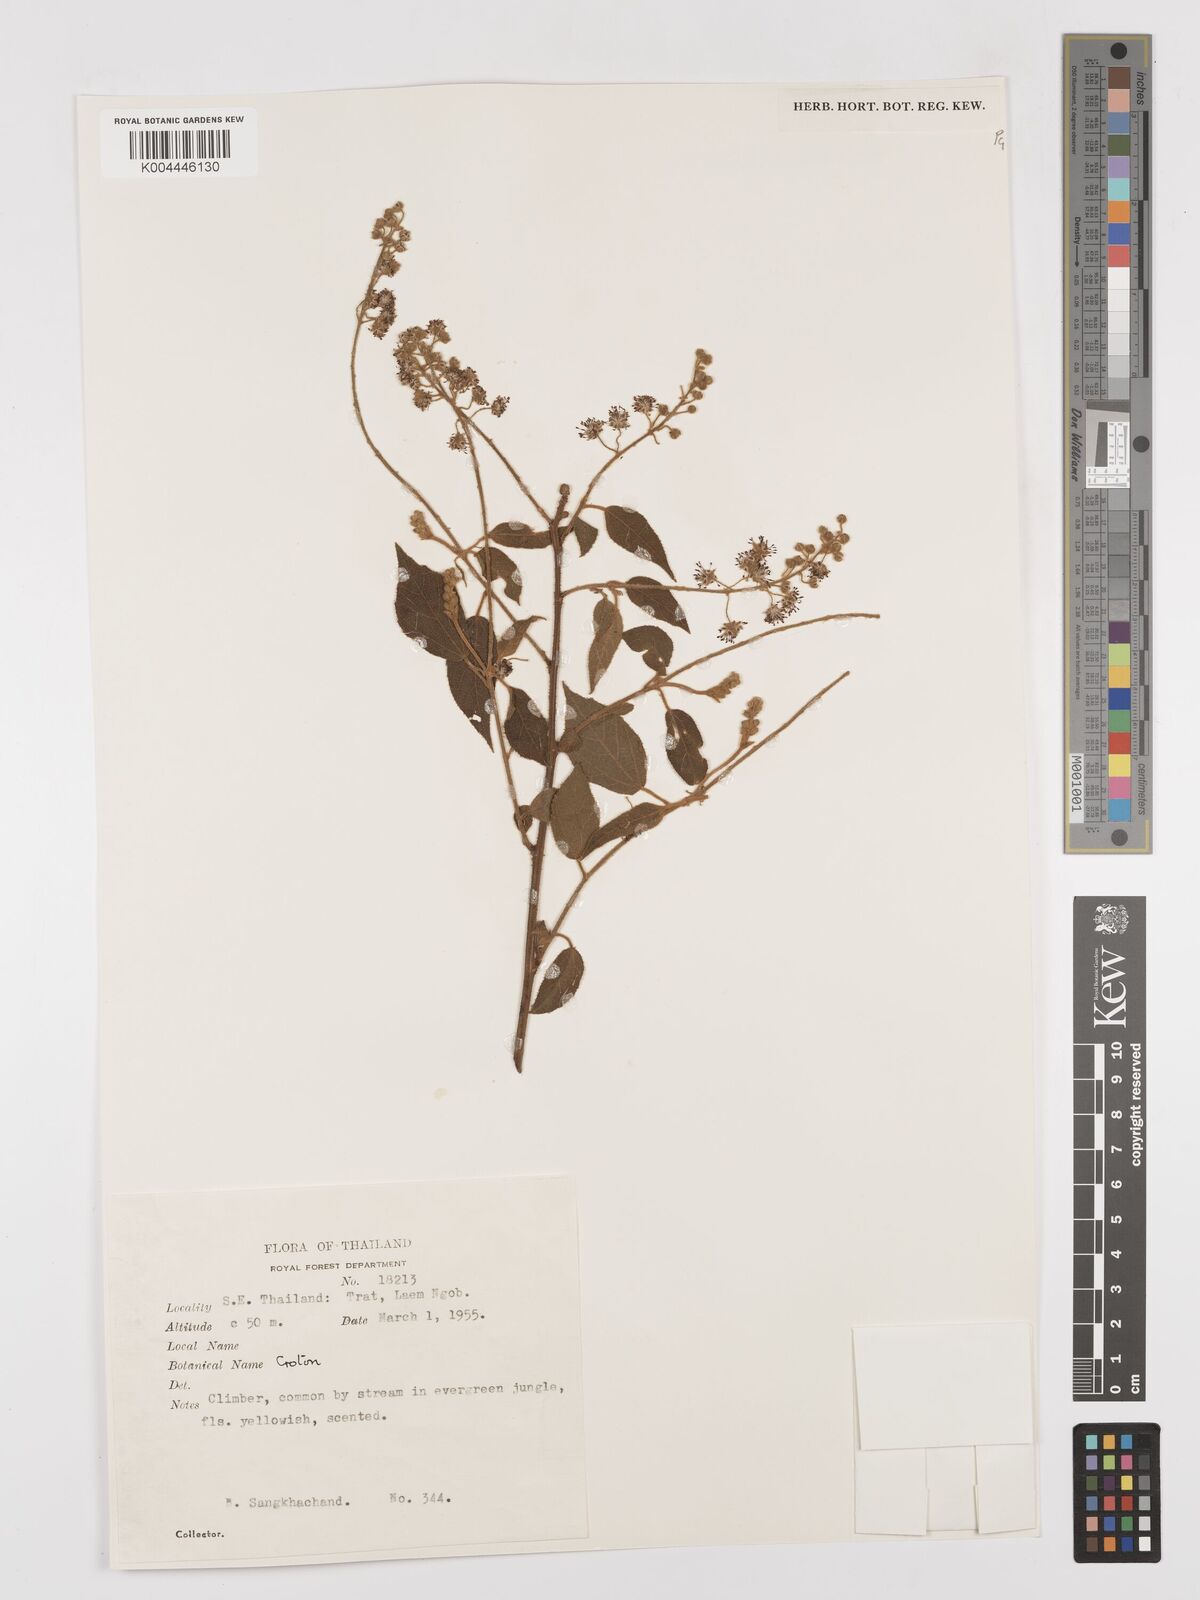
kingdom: Plantae
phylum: Tracheophyta
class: Magnoliopsida
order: Malpighiales
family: Euphorbiaceae
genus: Croton
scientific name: Croton caudatus
